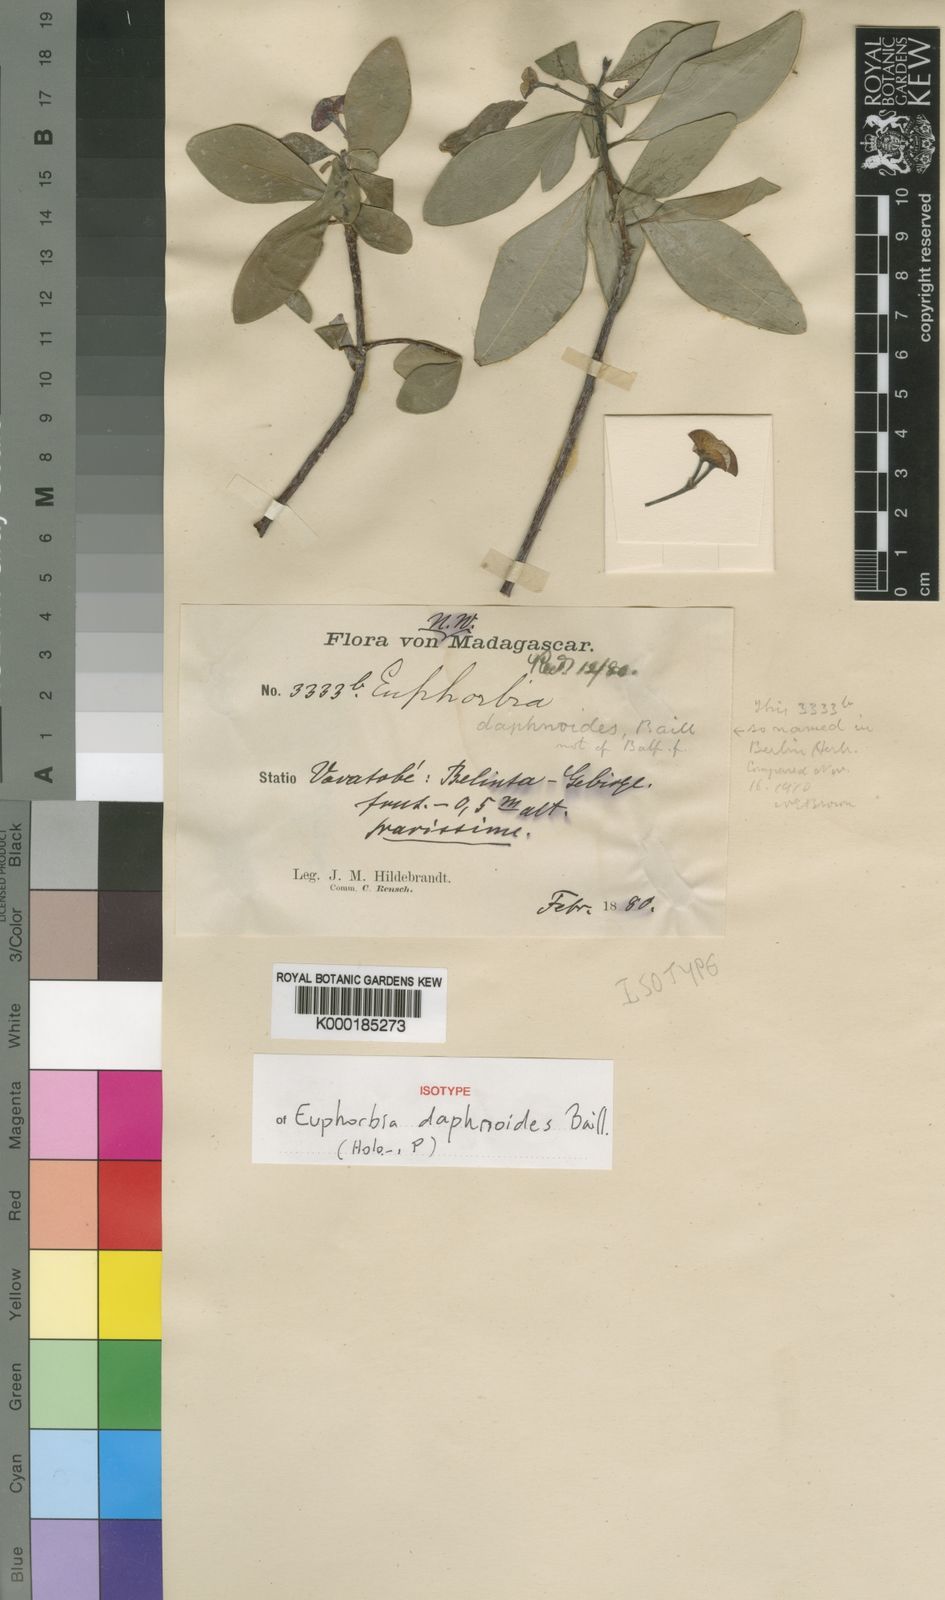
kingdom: Plantae
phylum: Tracheophyta
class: Magnoliopsida
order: Malpighiales
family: Euphorbiaceae
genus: Euphorbia
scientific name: Euphorbia hexadenia
